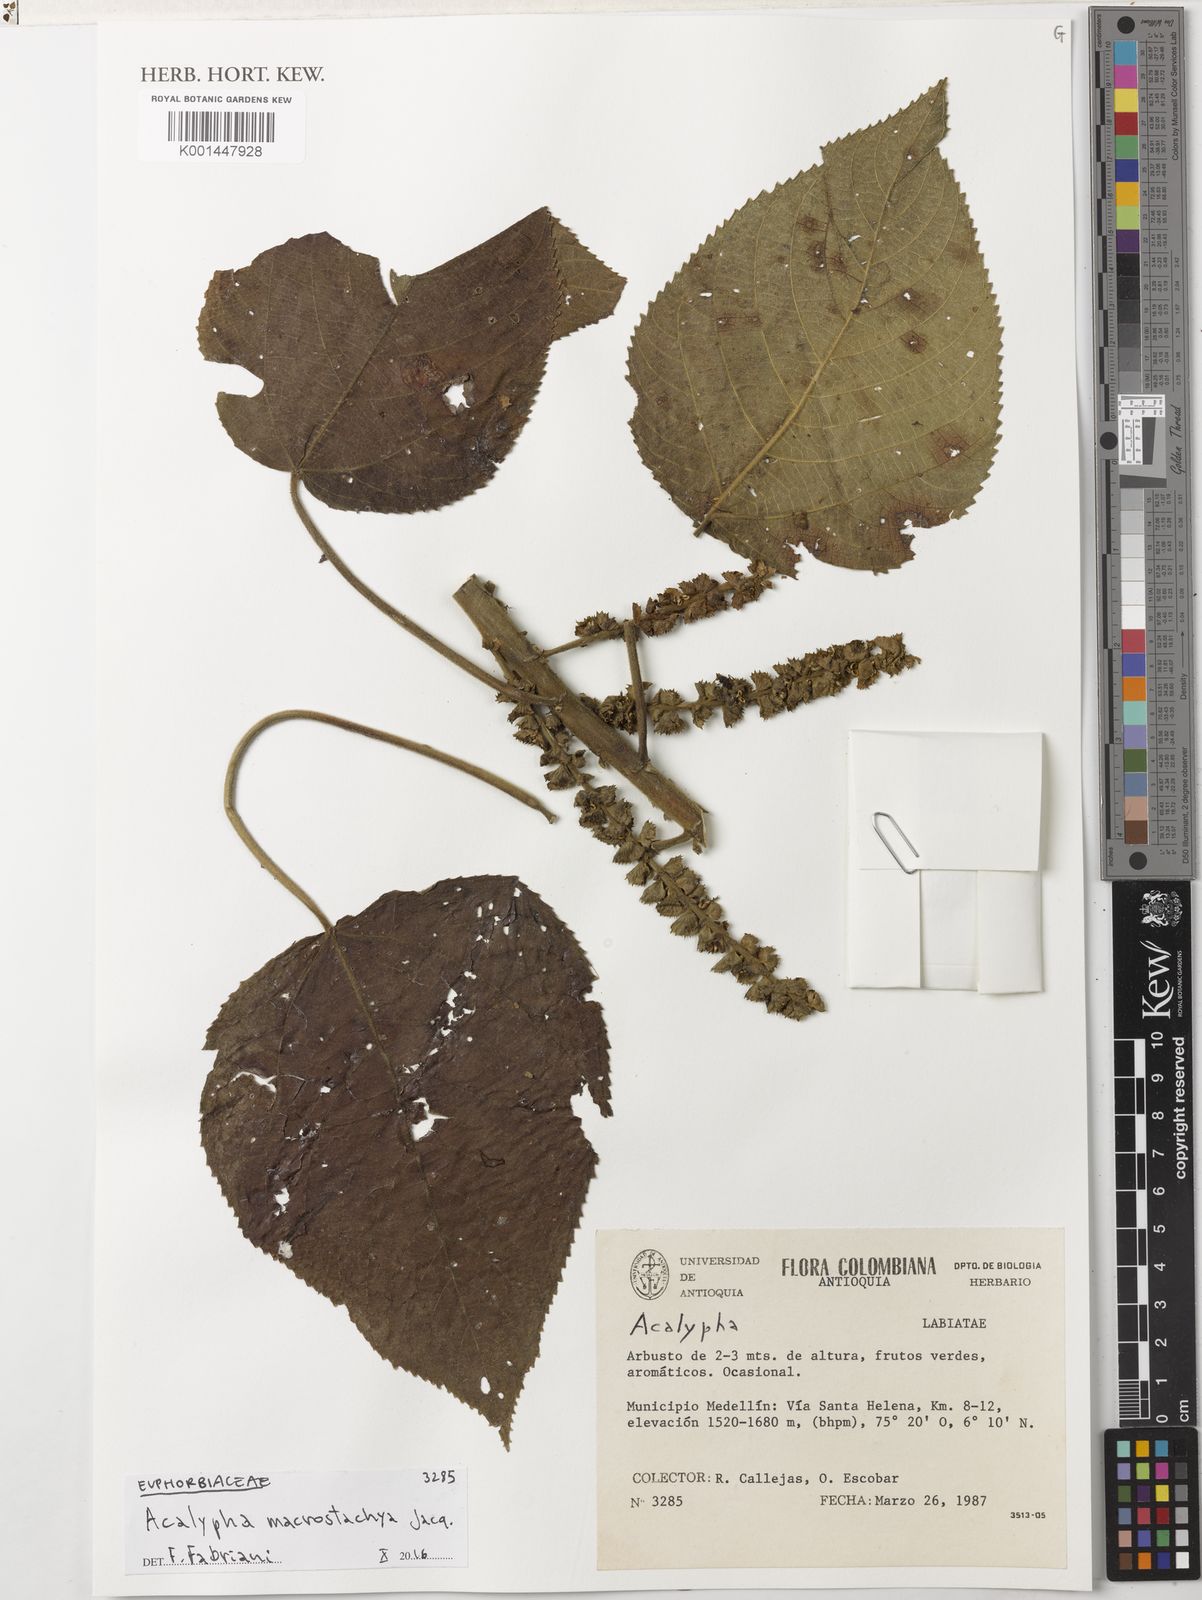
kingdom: Plantae
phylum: Tracheophyta
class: Magnoliopsida
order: Malpighiales
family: Euphorbiaceae
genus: Acalypha
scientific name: Acalypha macrostachya
